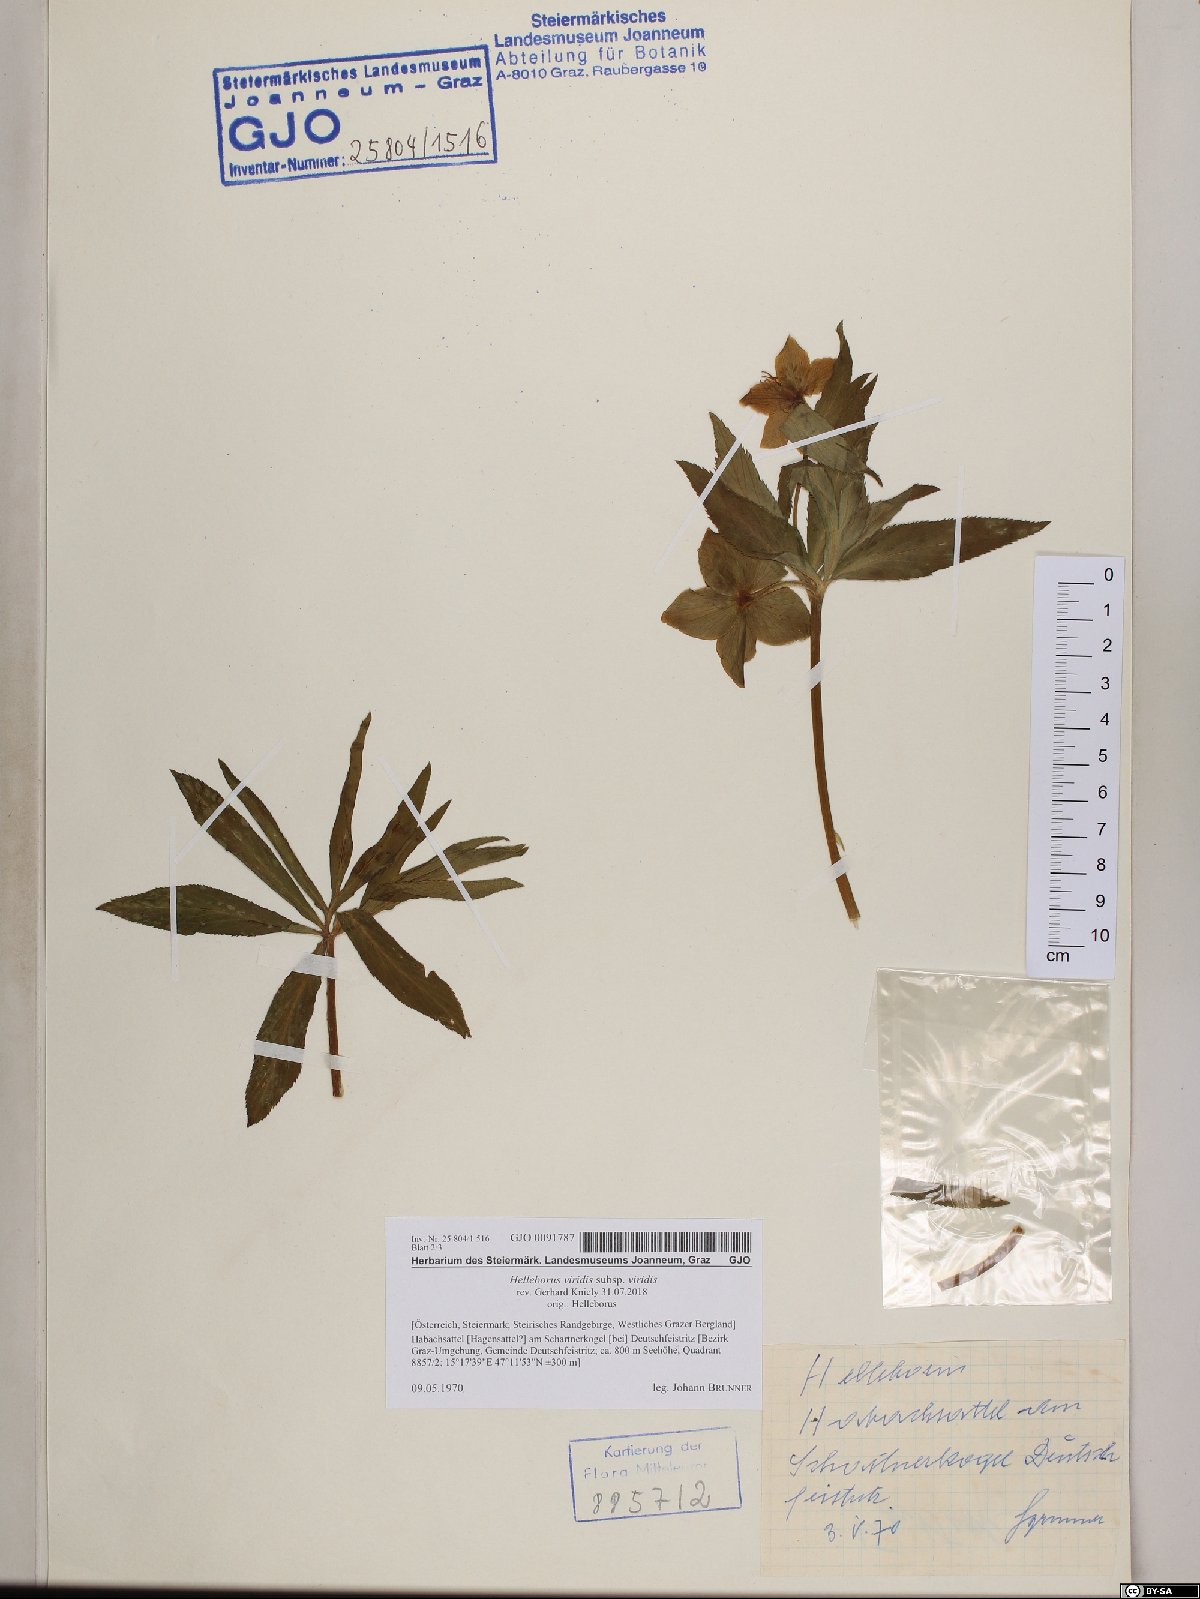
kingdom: Plantae
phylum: Tracheophyta
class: Magnoliopsida
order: Ranunculales
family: Ranunculaceae
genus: Helleborus
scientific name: Helleborus viridis
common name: Green hellebore
